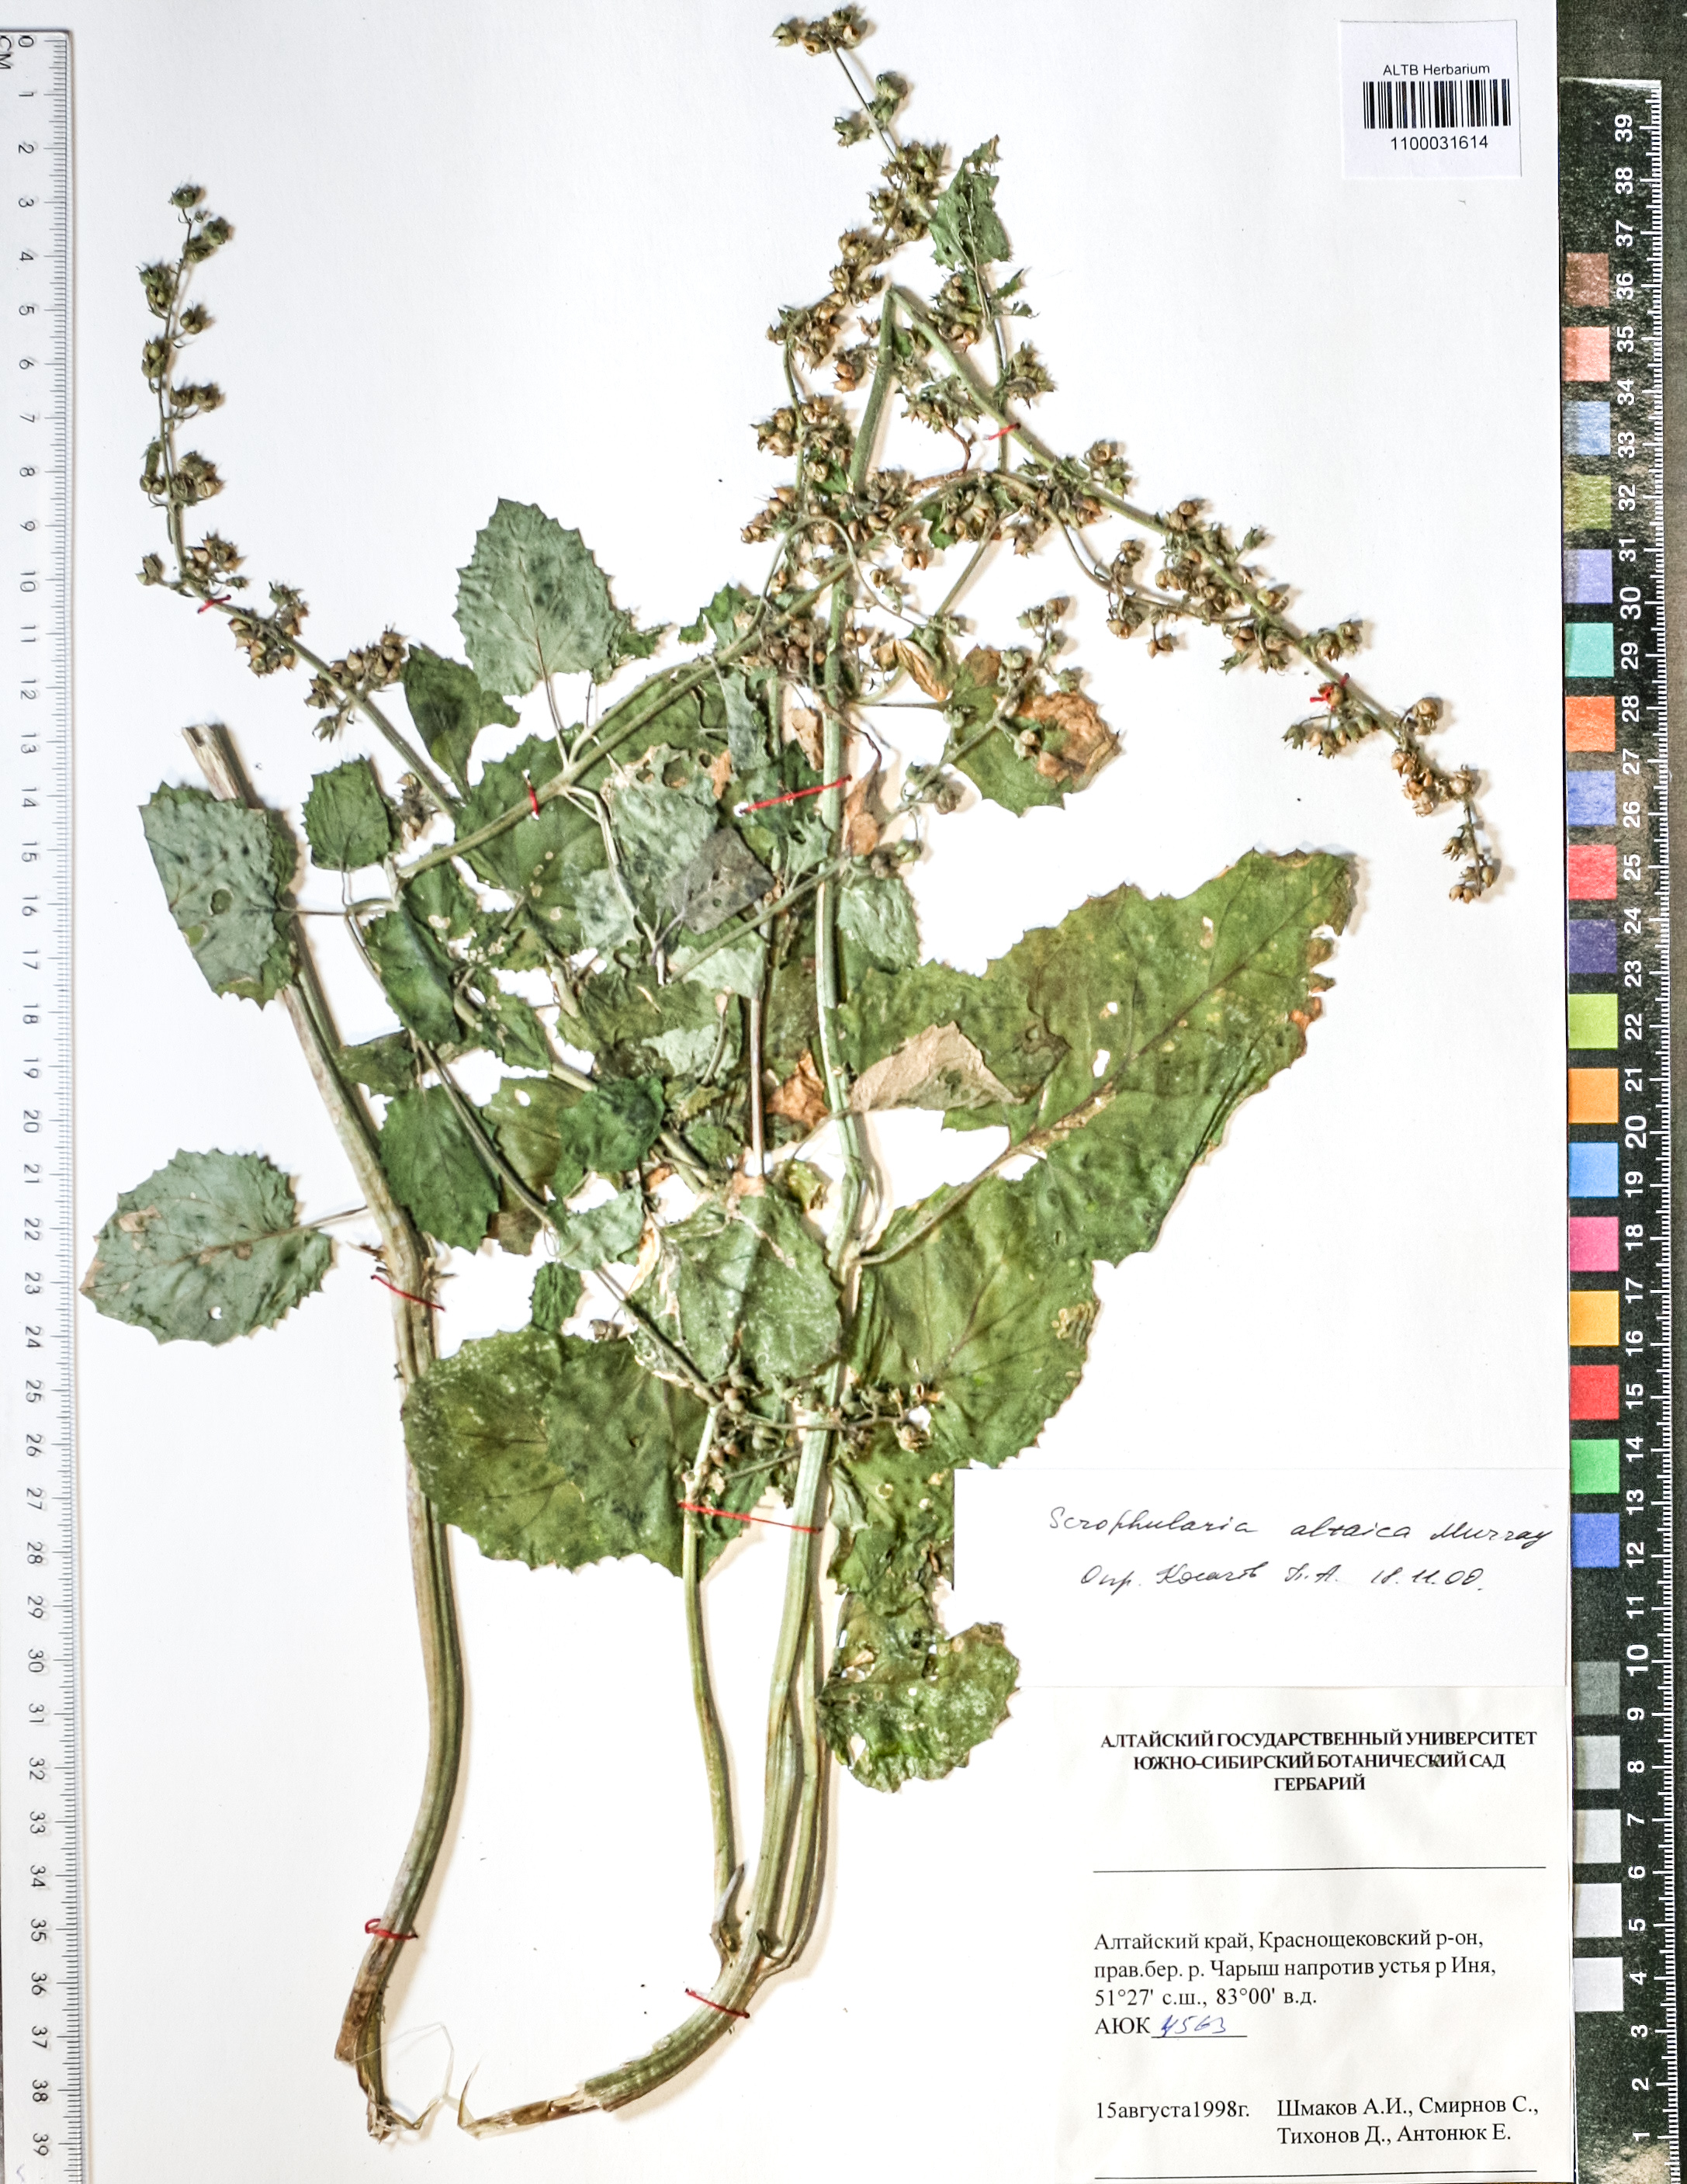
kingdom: Plantae
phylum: Tracheophyta
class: Magnoliopsida
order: Lamiales
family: Scrophulariaceae
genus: Scrophularia
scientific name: Scrophularia altaica
